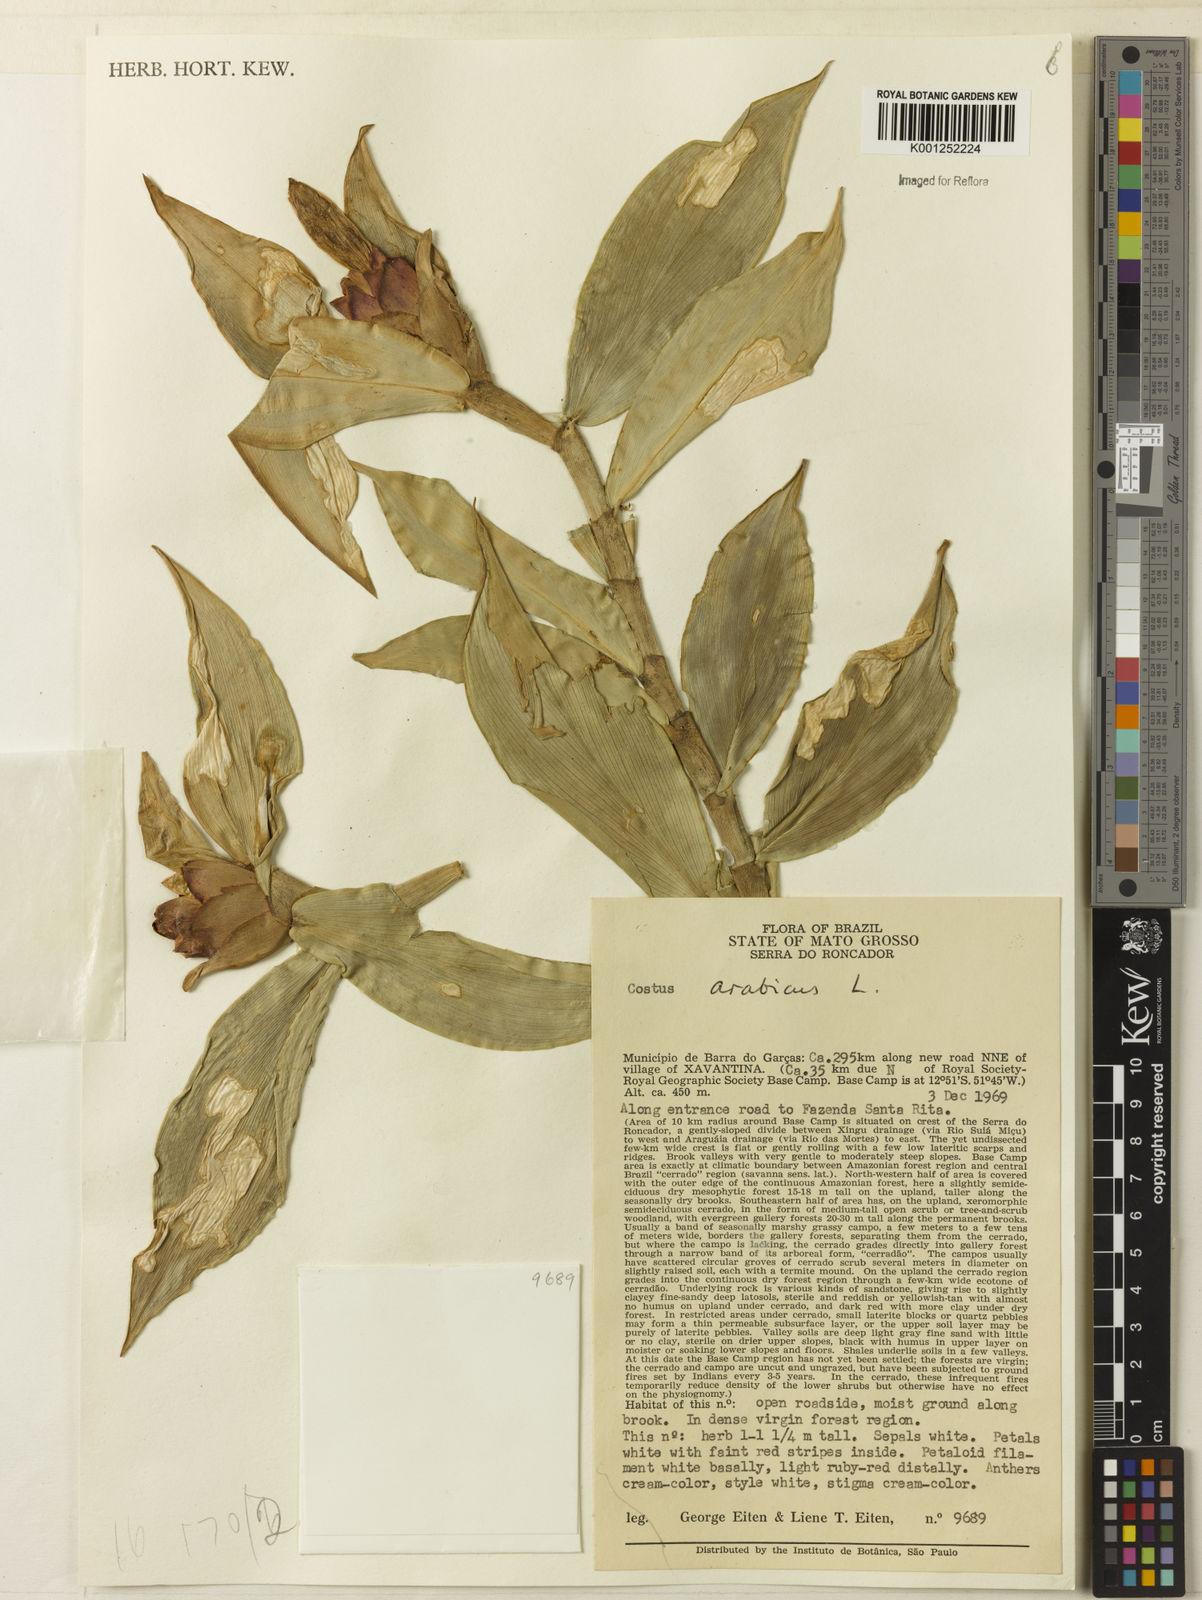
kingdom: Plantae
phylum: Tracheophyta
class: Liliopsida
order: Zingiberales
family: Costaceae
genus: Costus
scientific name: Costus arabicus
